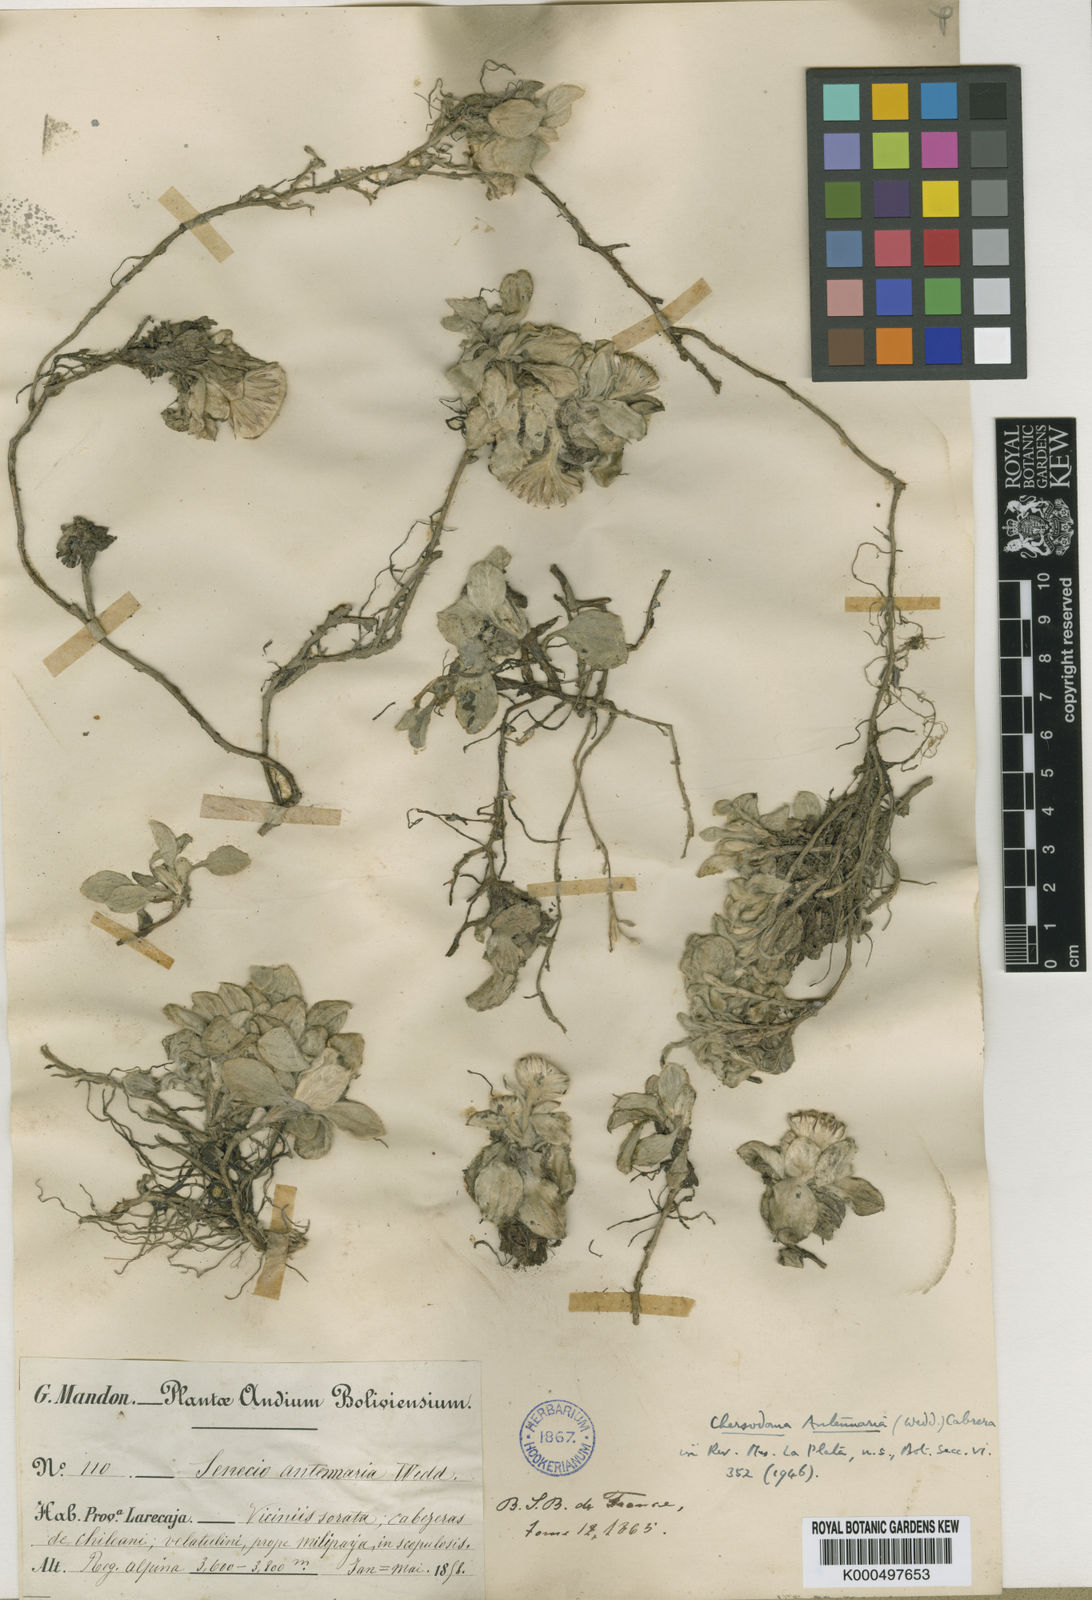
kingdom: Plantae
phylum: Tracheophyta
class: Magnoliopsida
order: Asterales
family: Asteraceae
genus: Chersodoma
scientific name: Chersodoma antennaria
